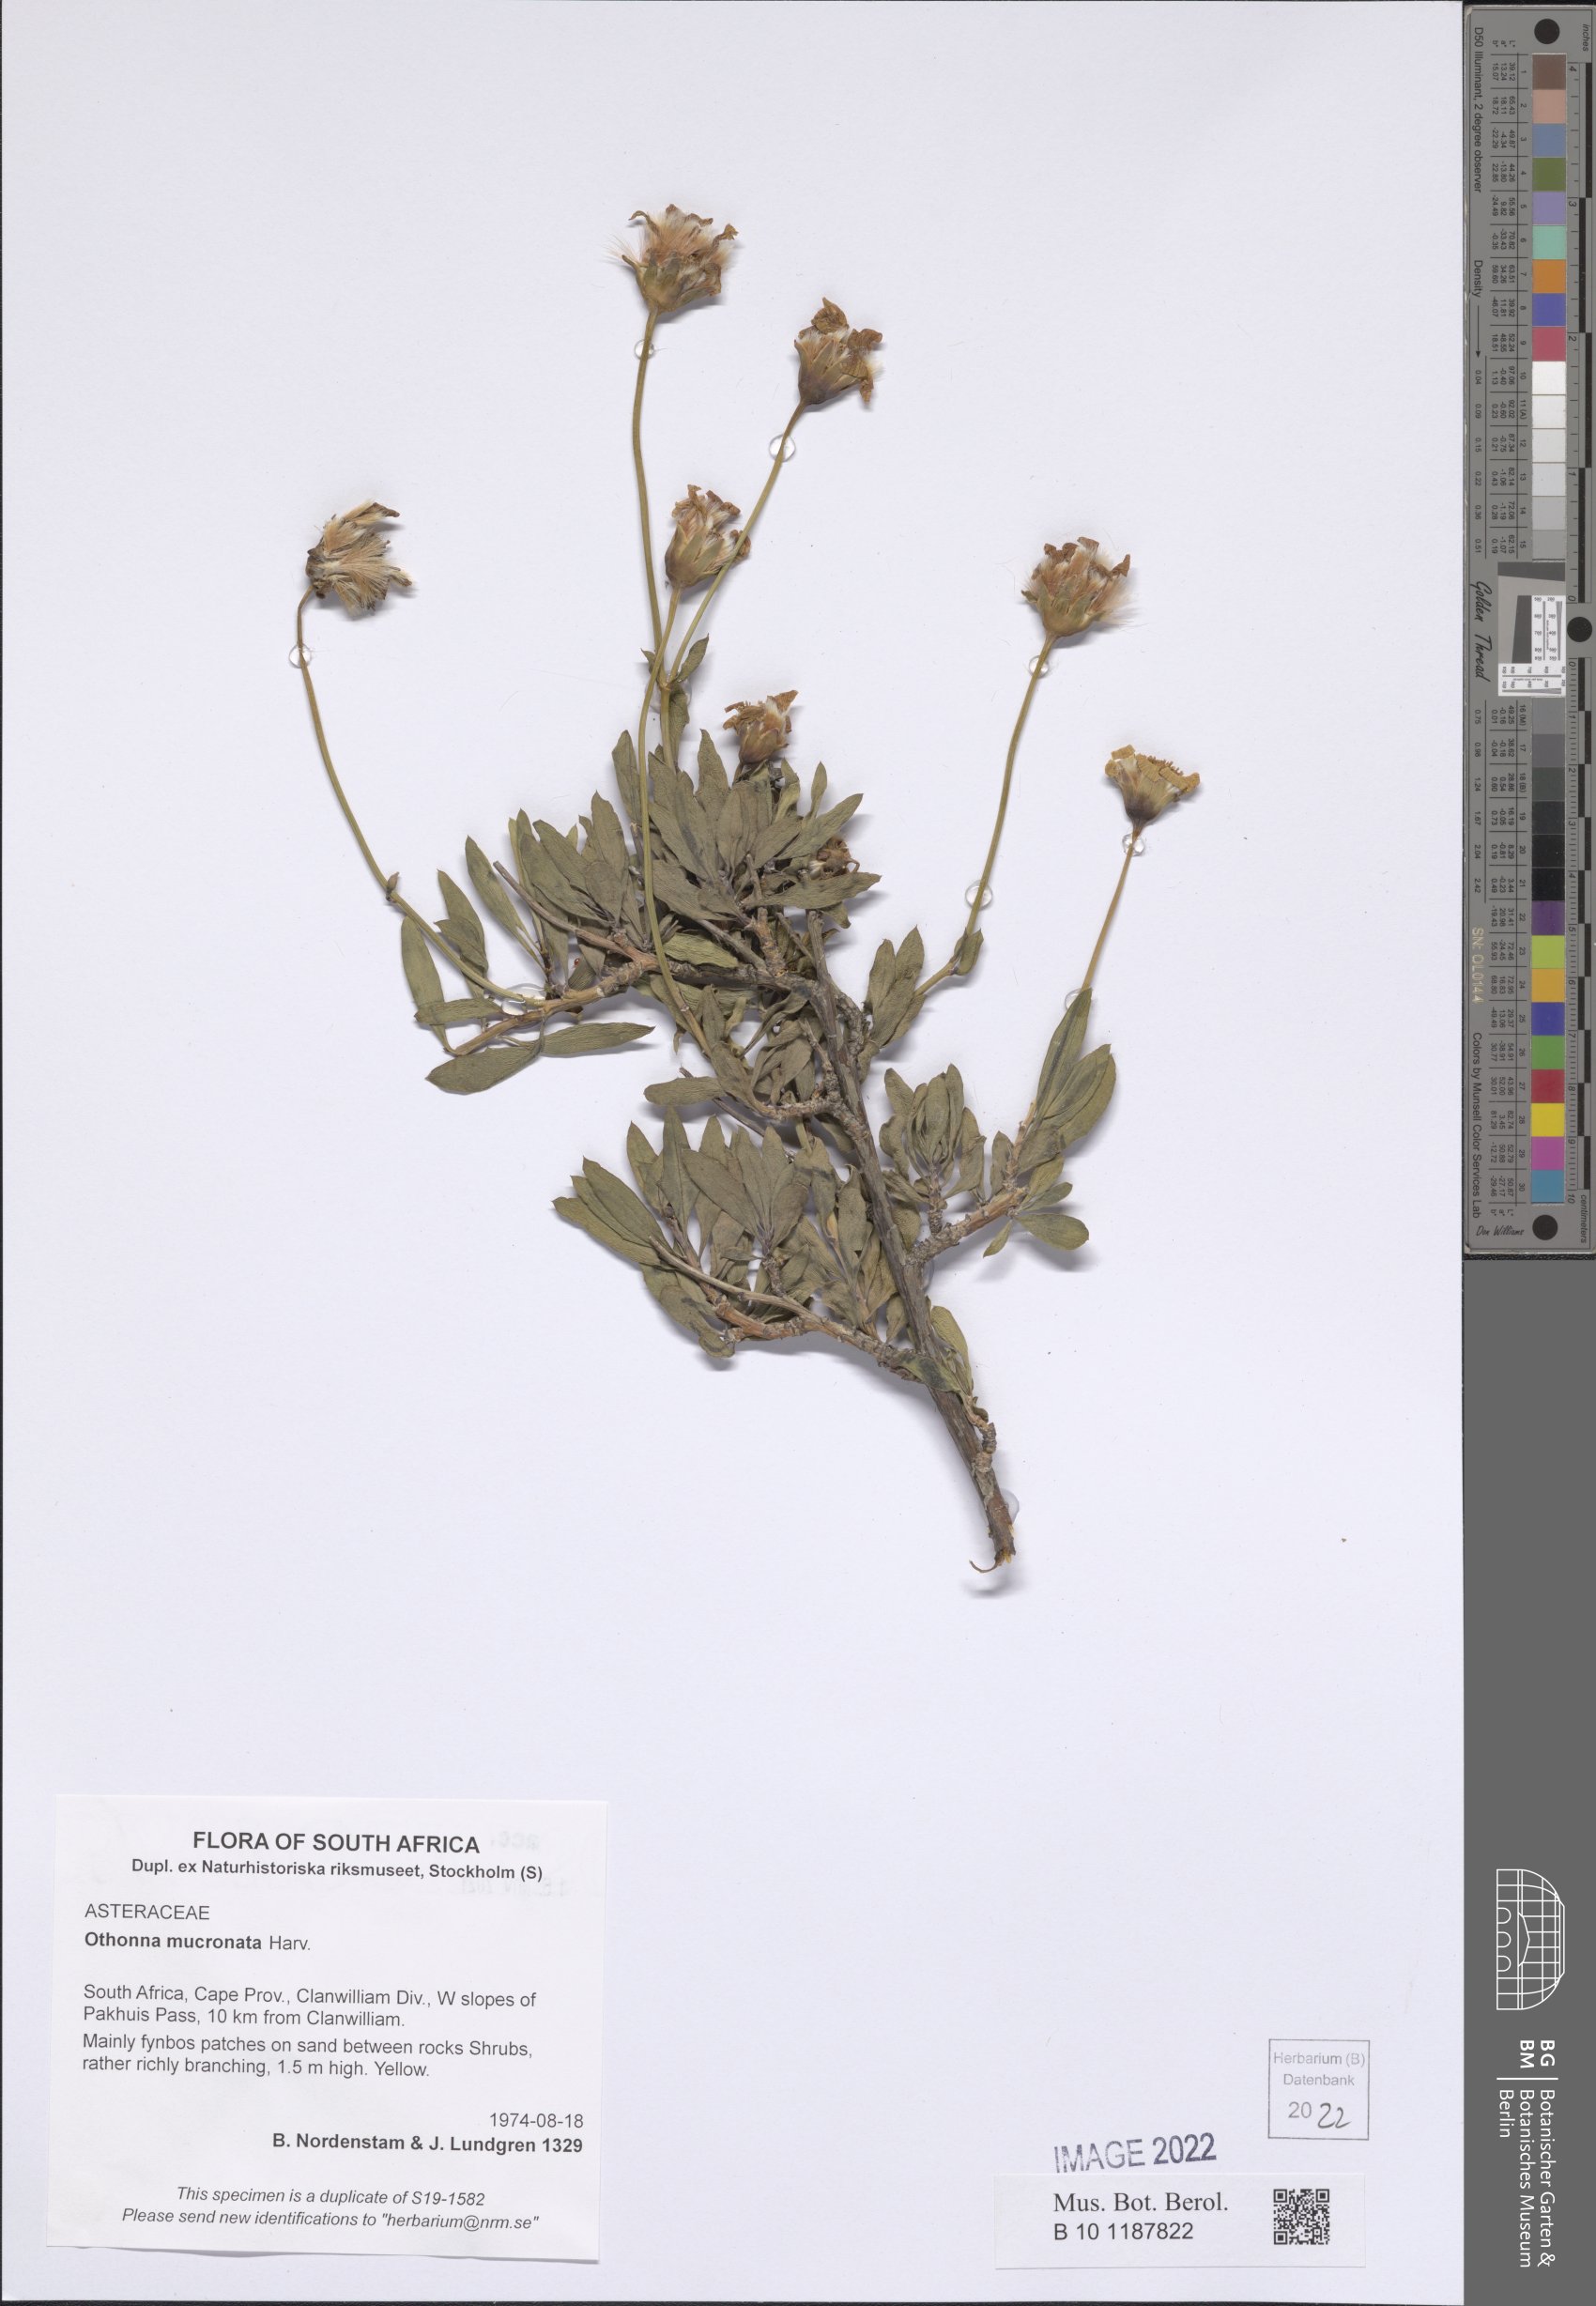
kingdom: Plantae
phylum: Tracheophyta
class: Magnoliopsida
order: Asterales
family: Asteraceae
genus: Othonna
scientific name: Othonna mucronata
